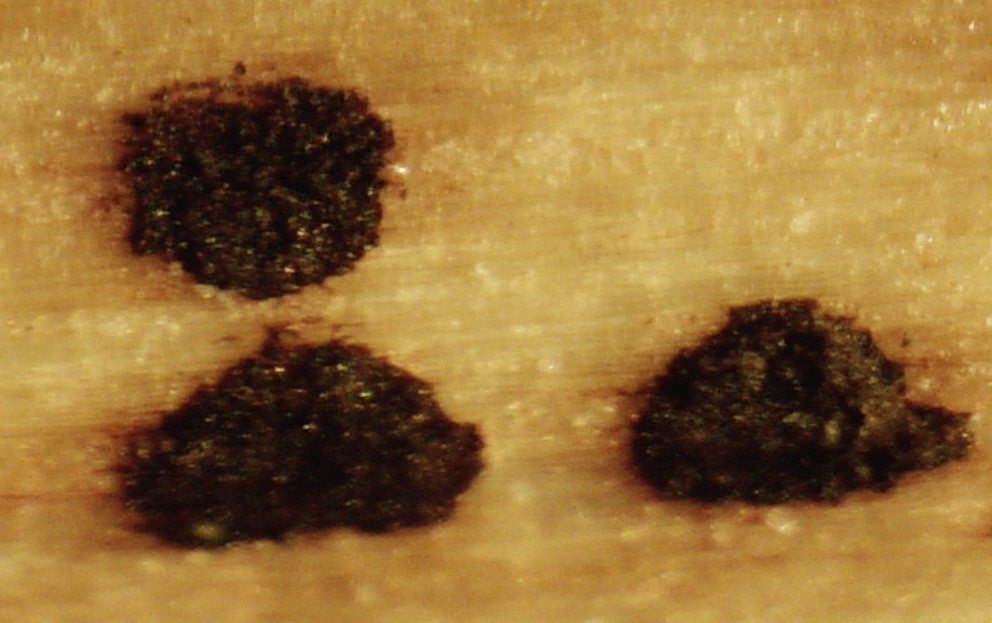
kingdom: Fungi
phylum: Ascomycota
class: Dothideomycetes
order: Pleosporales
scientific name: Pleosporales
